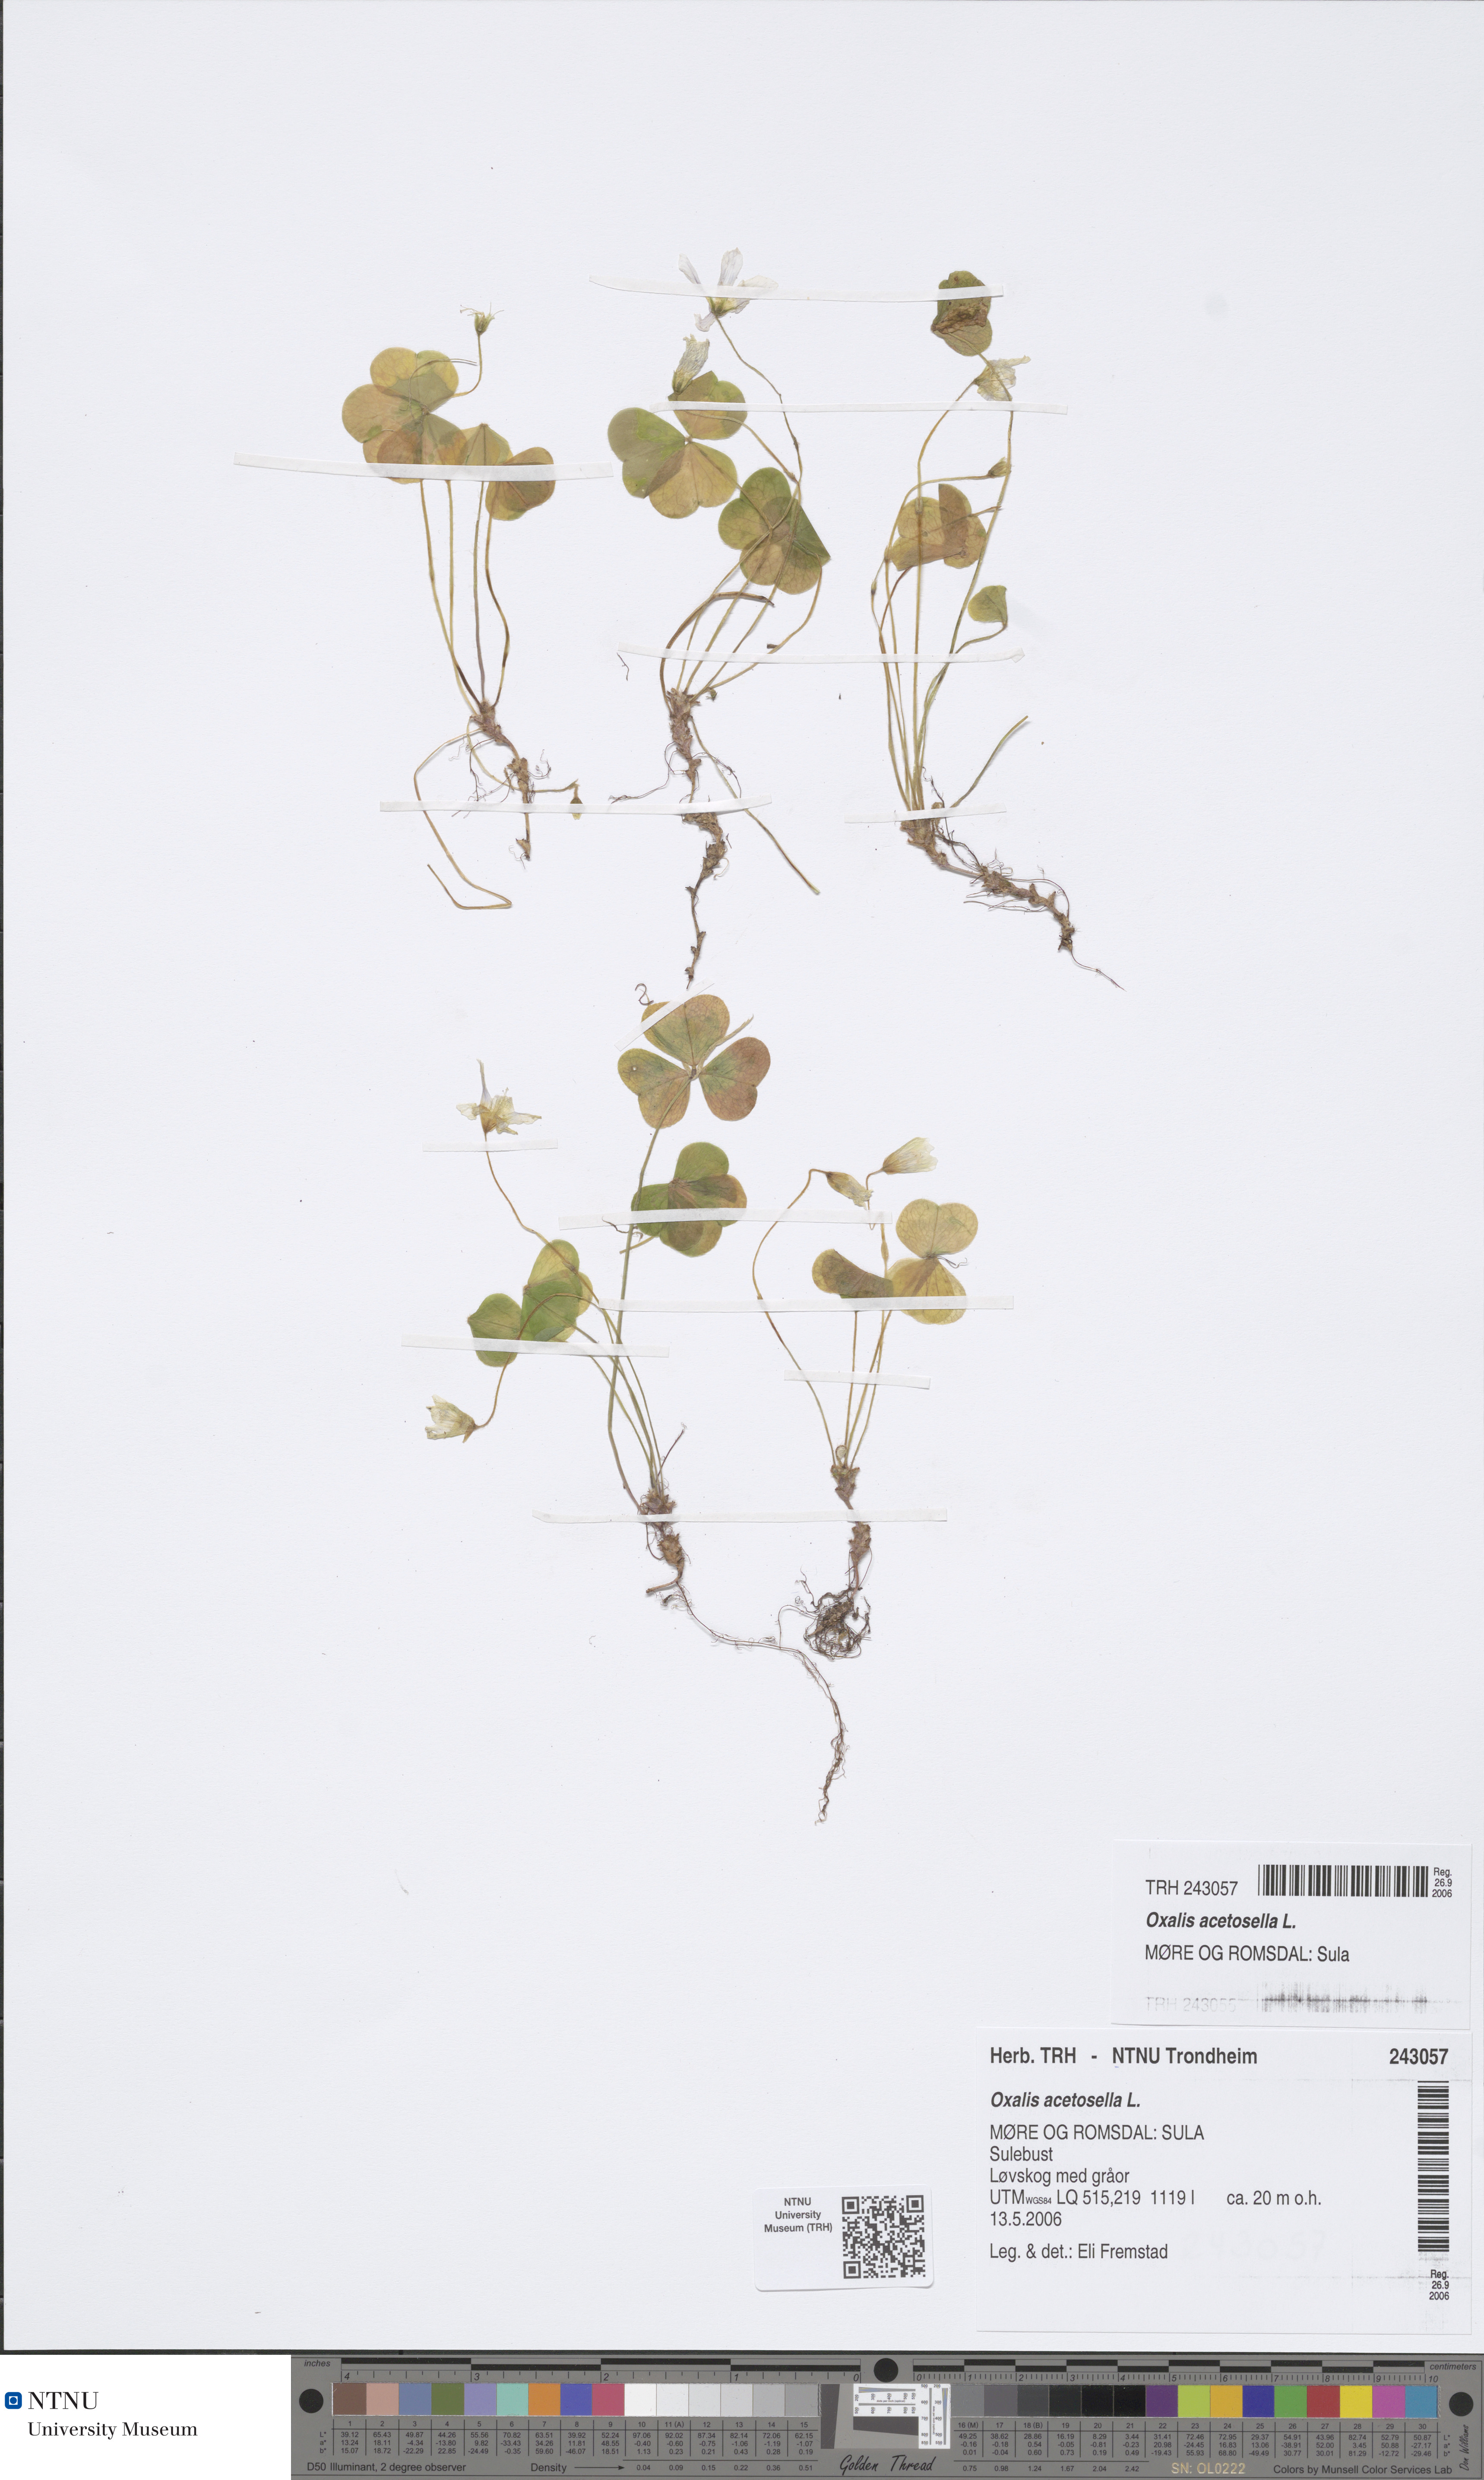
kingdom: Plantae
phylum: Tracheophyta
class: Magnoliopsida
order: Oxalidales
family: Oxalidaceae
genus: Oxalis
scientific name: Oxalis acetosella
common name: Wood-sorrel
